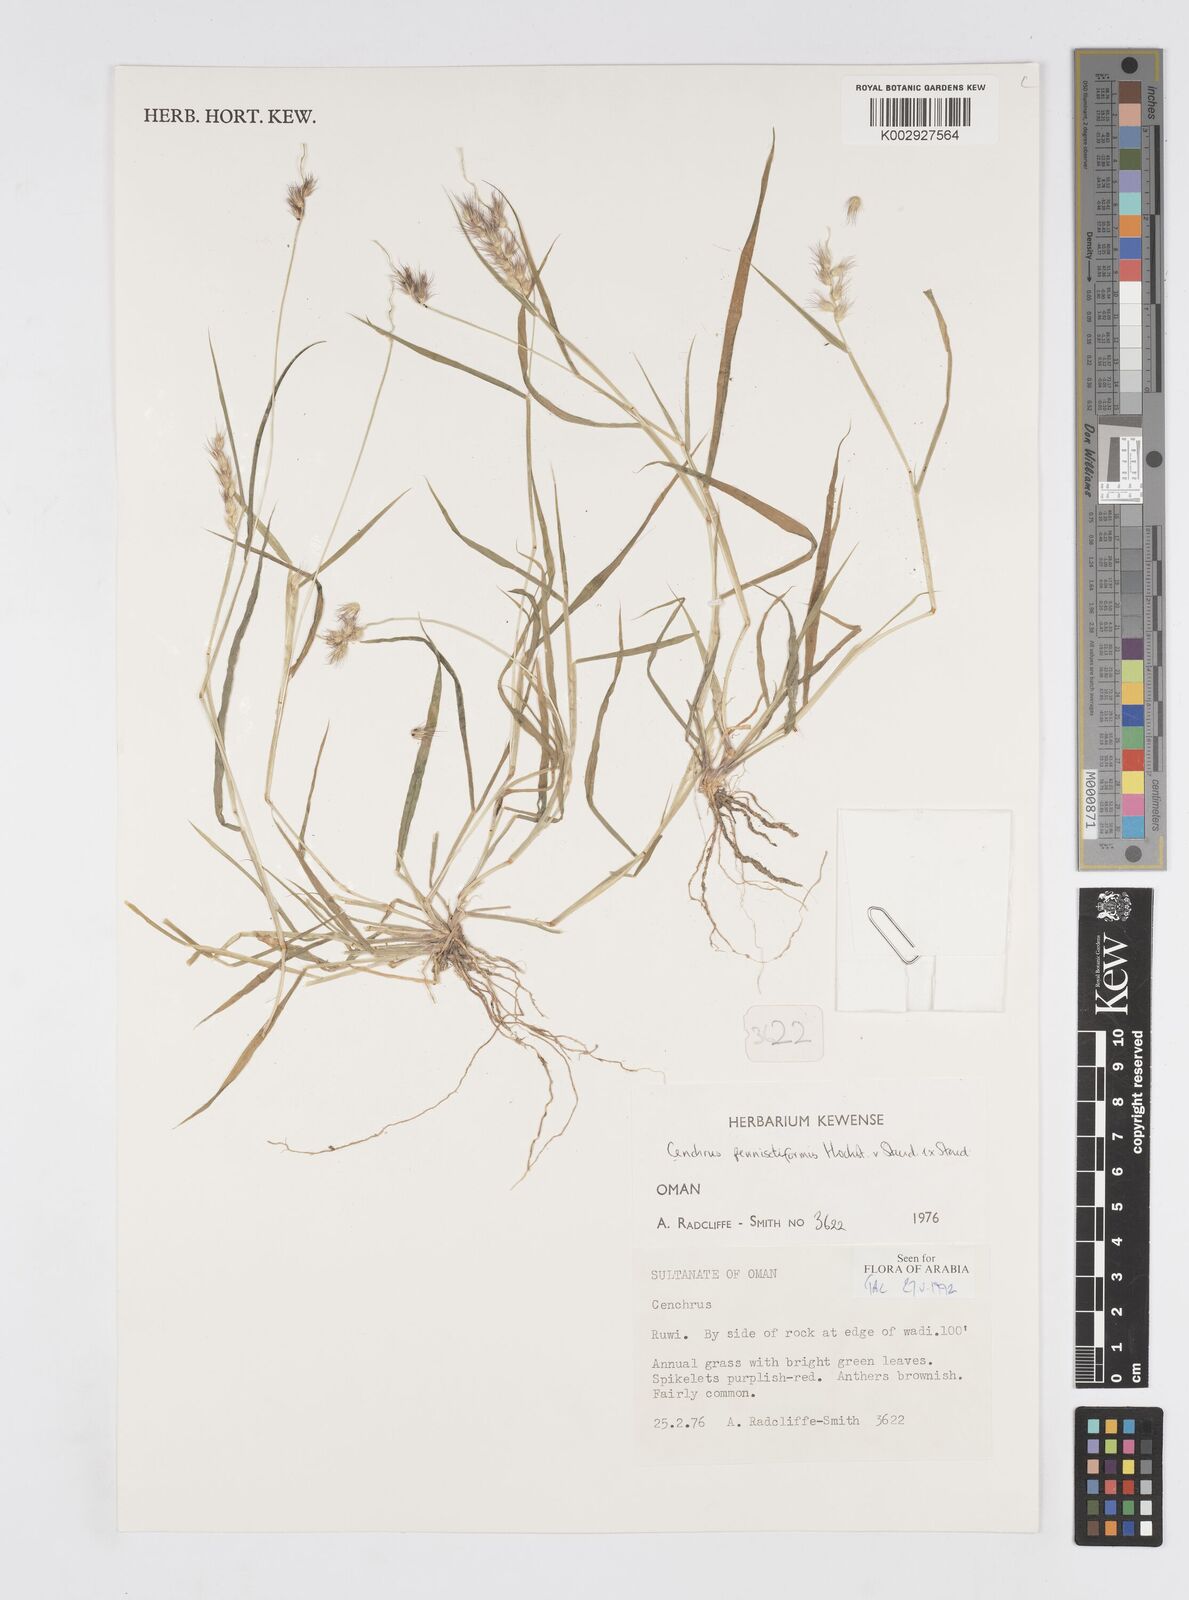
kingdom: Plantae
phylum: Tracheophyta
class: Liliopsida
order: Poales
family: Poaceae
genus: Cenchrus
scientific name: Cenchrus pennisetiformis
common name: Cloncurry
